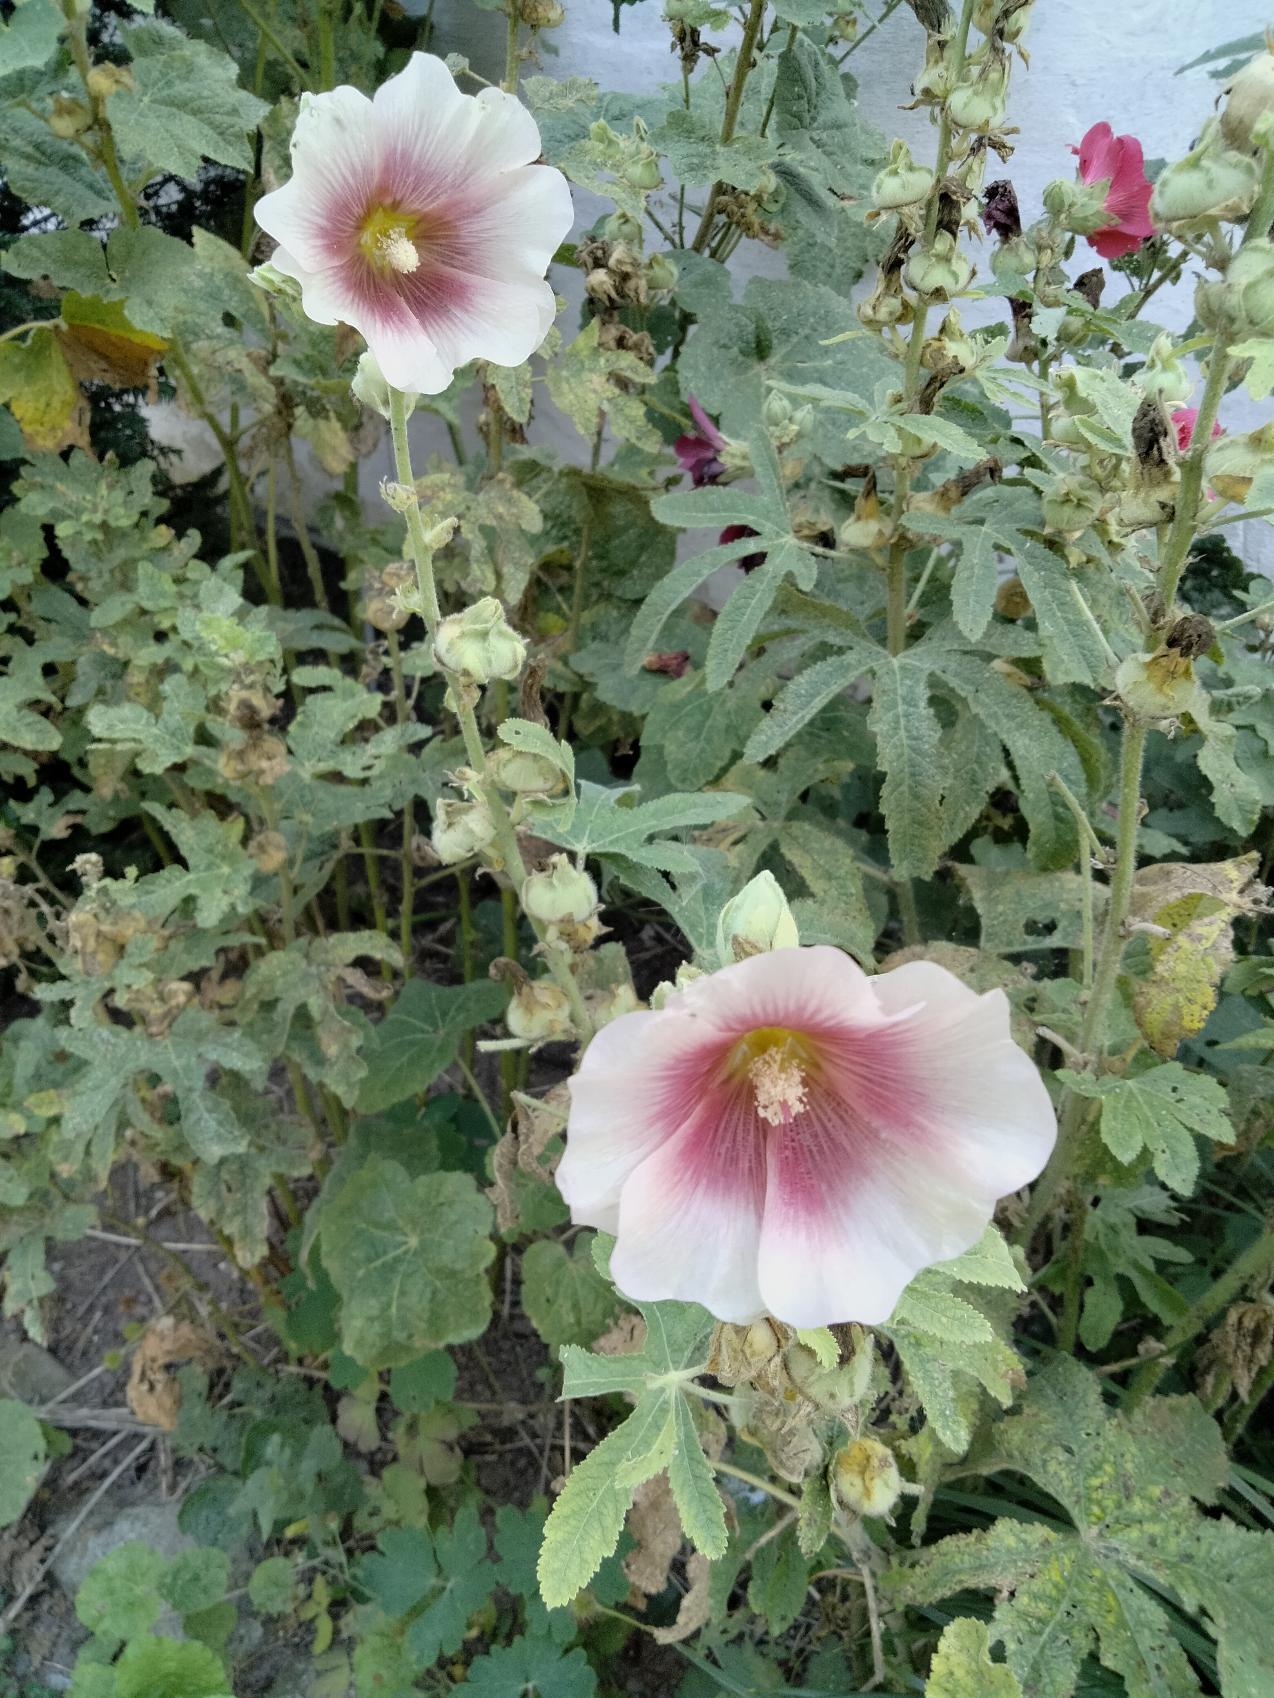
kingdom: Plantae
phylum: Tracheophyta
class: Magnoliopsida
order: Malvales
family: Malvaceae
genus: Alcea
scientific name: Alcea rosea
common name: Have-stokrose
